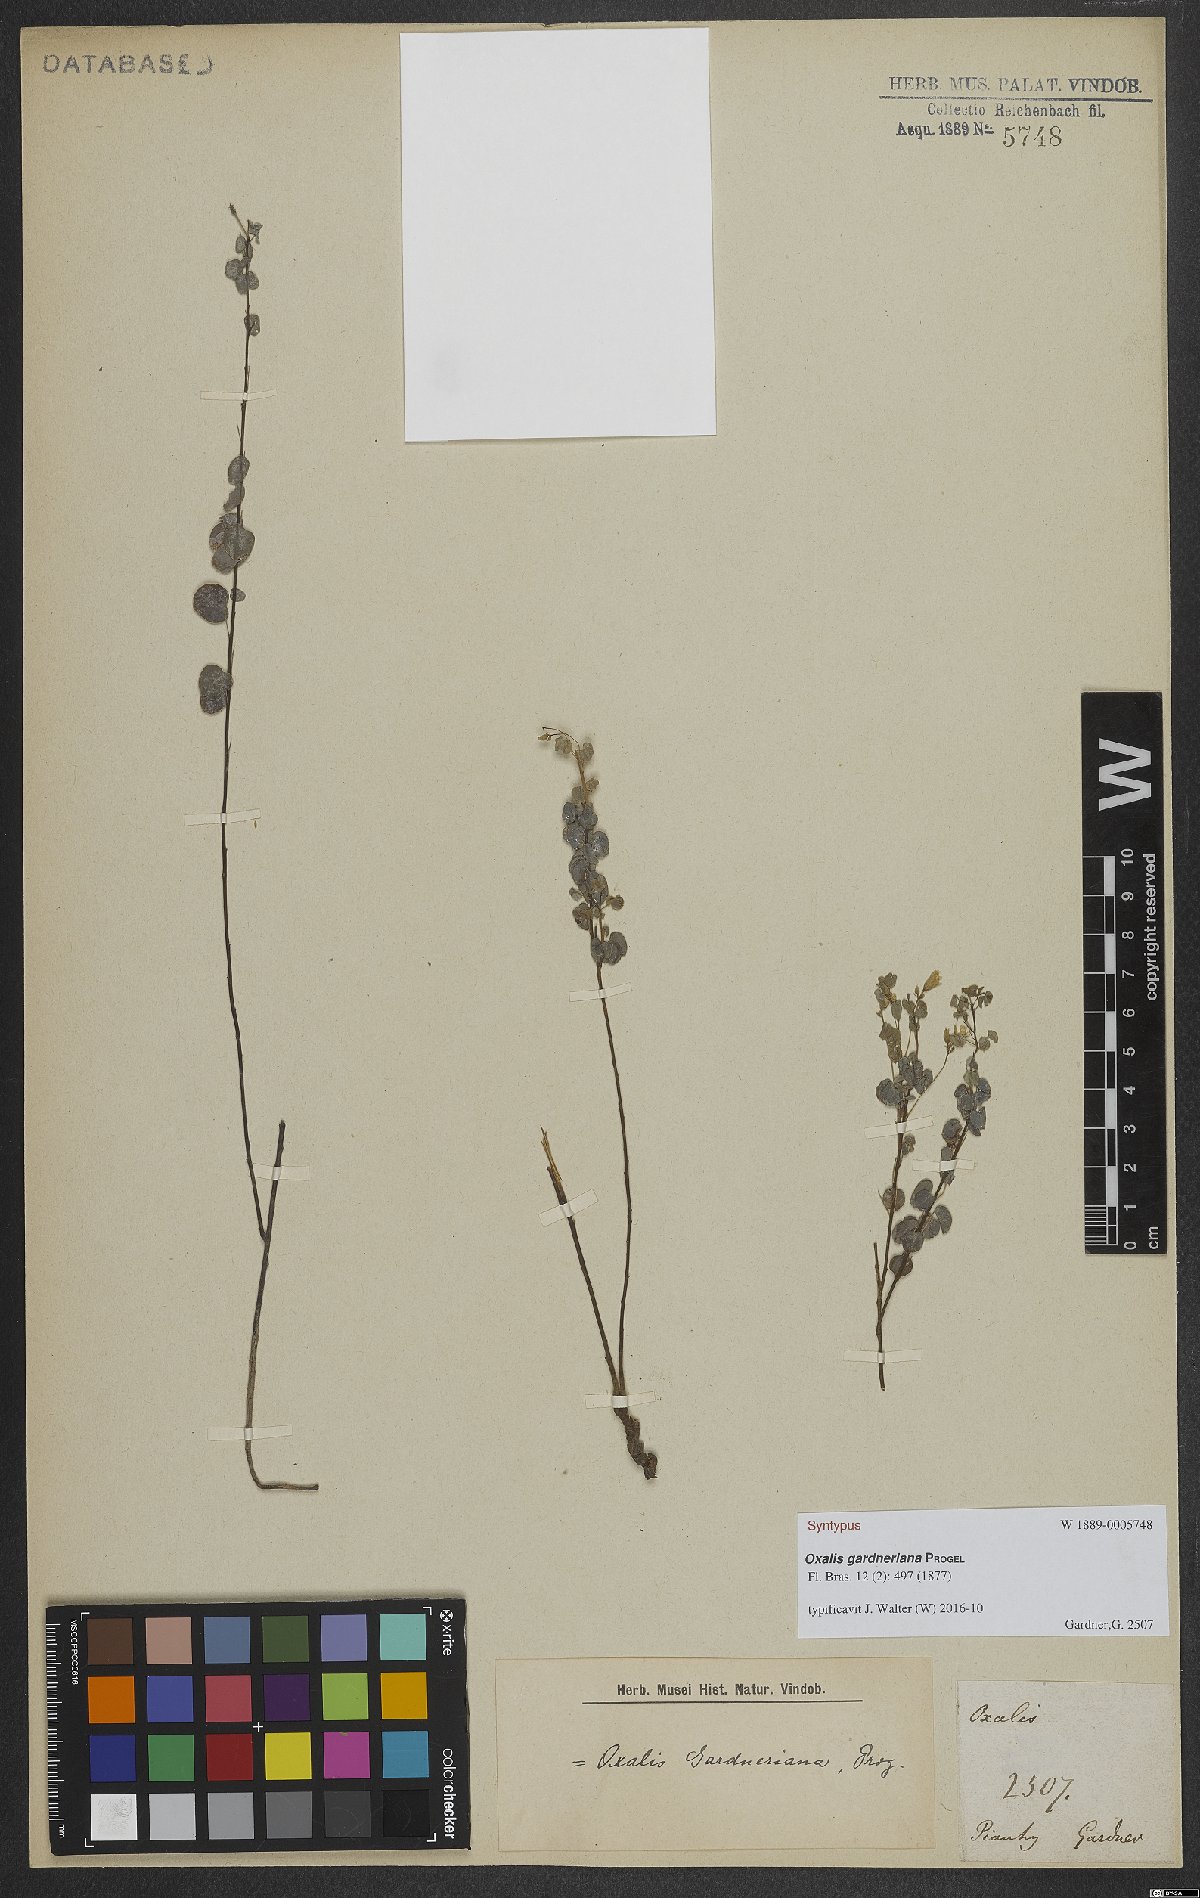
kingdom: Plantae
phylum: Tracheophyta
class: Magnoliopsida
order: Oxalidales
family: Oxalidaceae
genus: Oxalis
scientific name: Oxalis gardneriana
